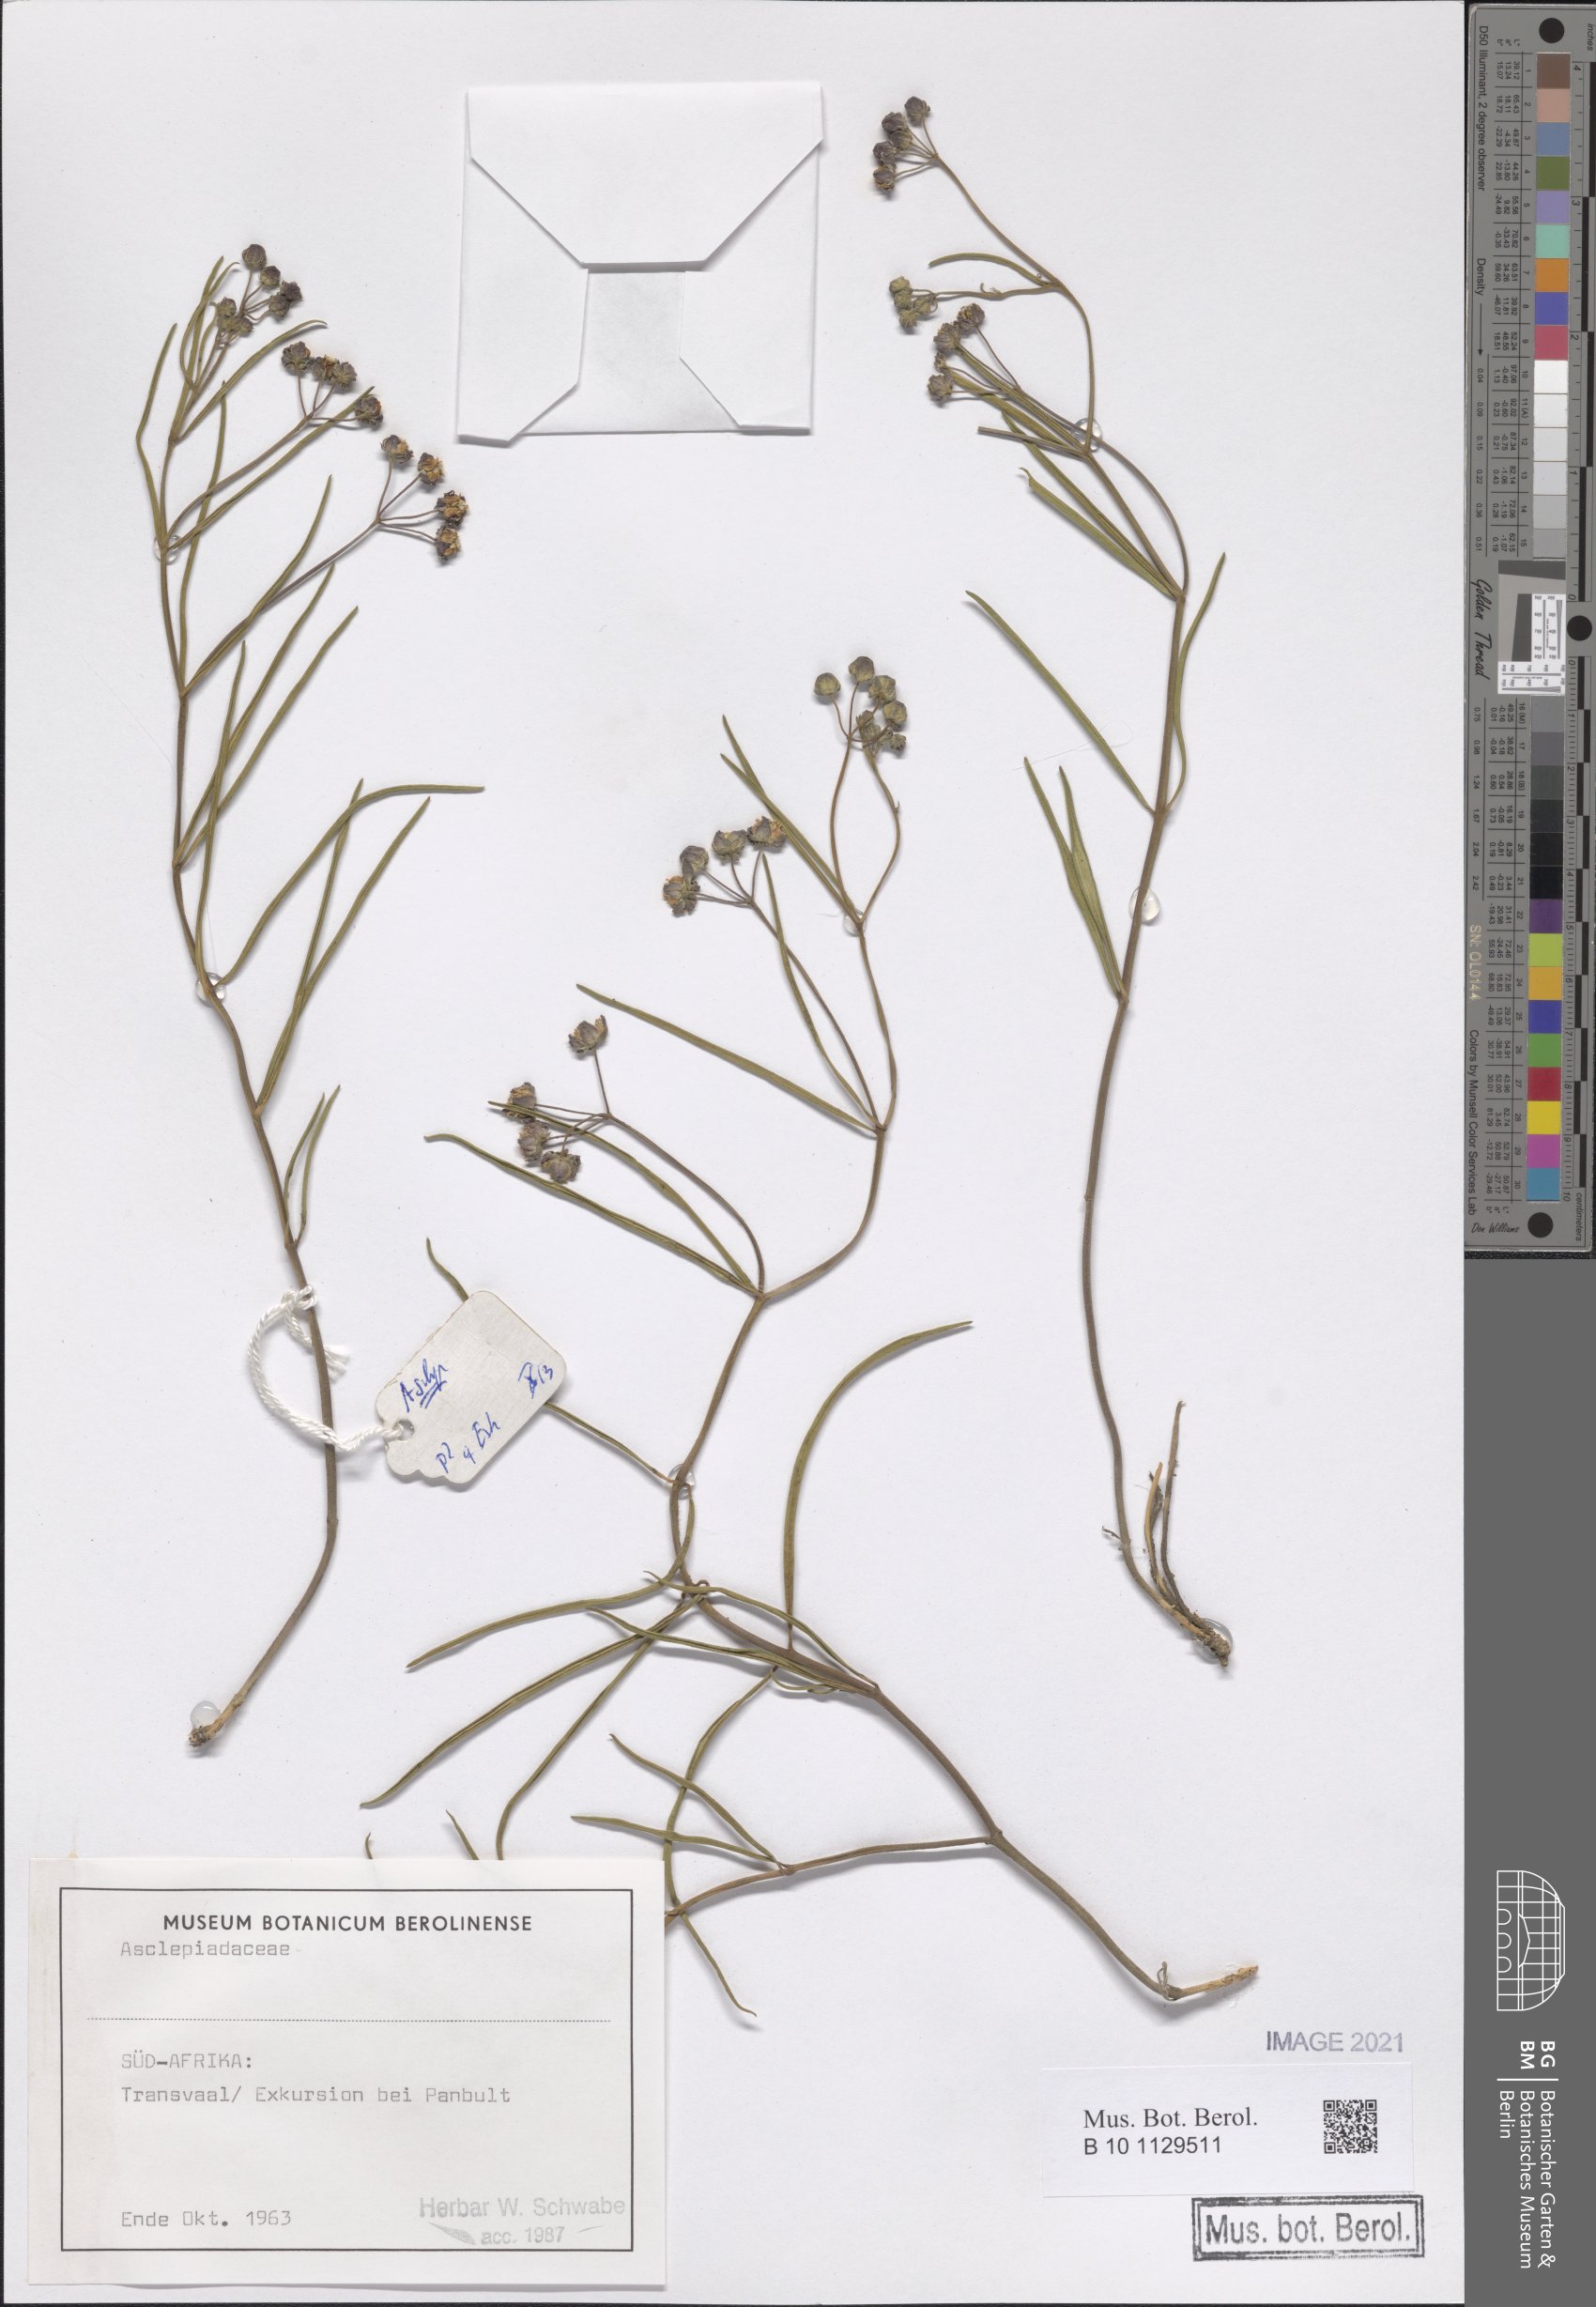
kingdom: Plantae
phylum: Tracheophyta
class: Magnoliopsida
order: Gentianales
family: Apocynaceae
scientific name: Apocynaceae
